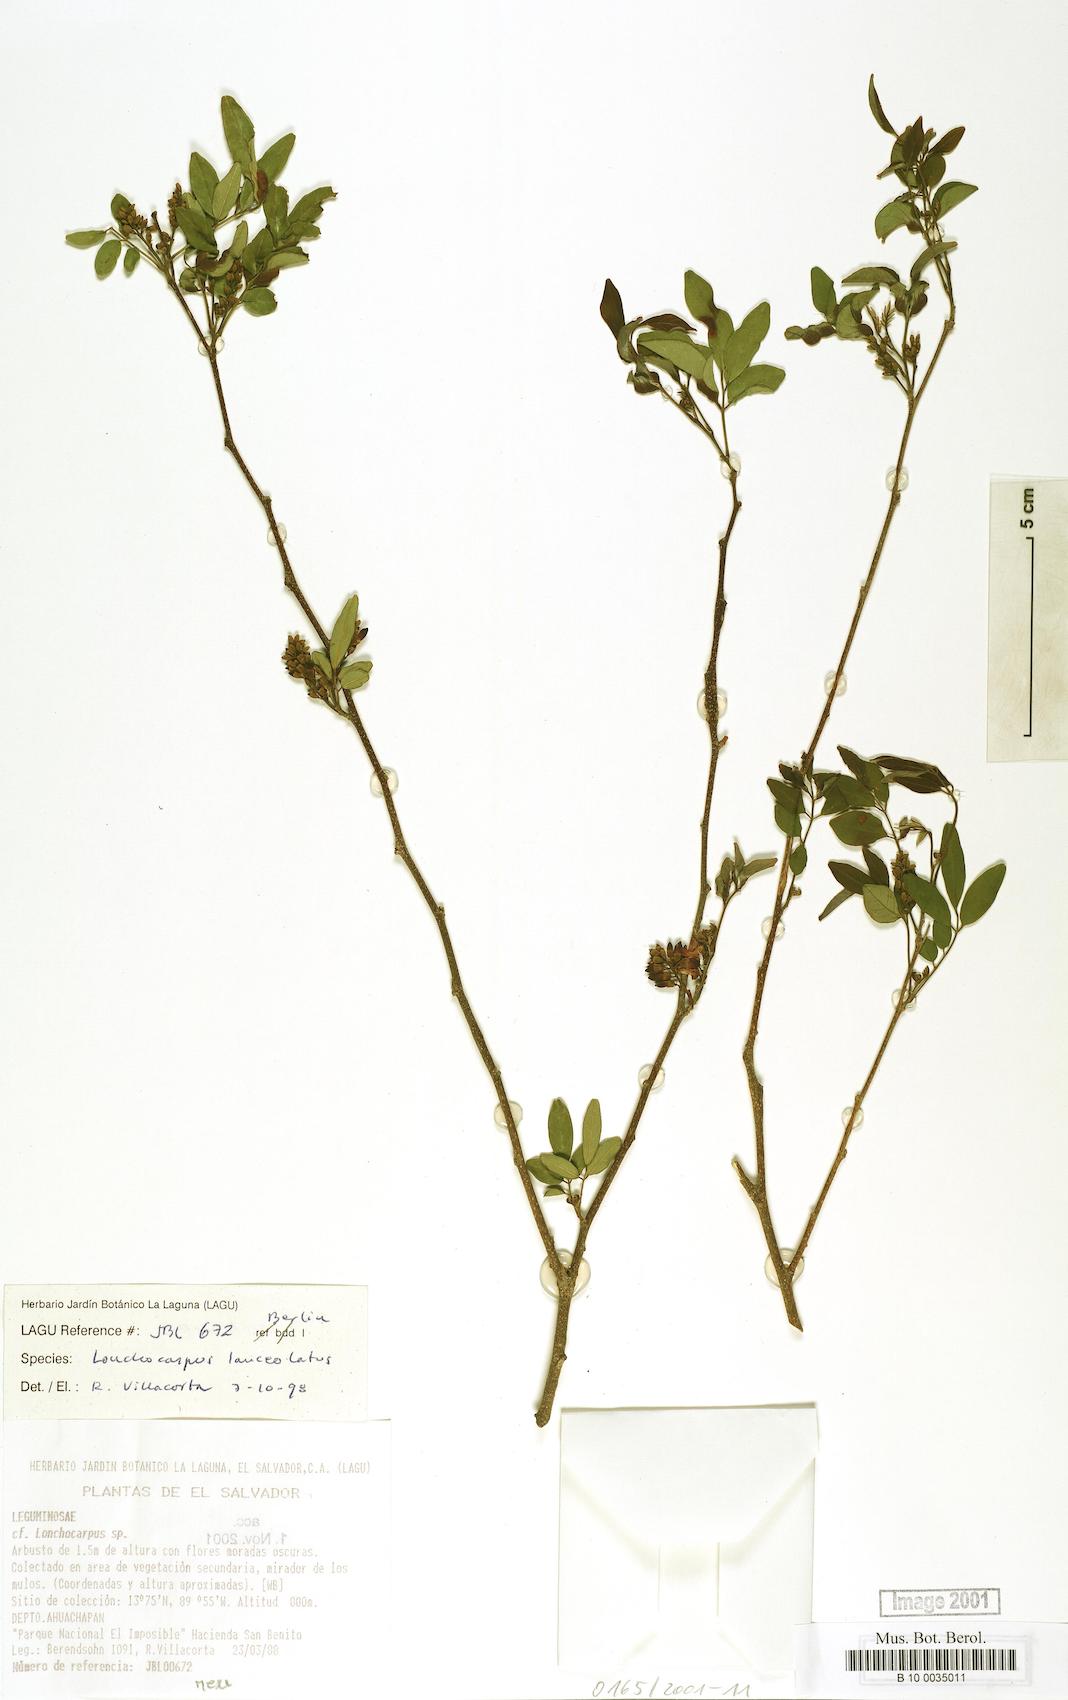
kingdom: Plantae
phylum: Tracheophyta
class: Magnoliopsida
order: Fabales
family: Fabaceae
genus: Lonchocarpus
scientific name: Lonchocarpus stenophyllus
